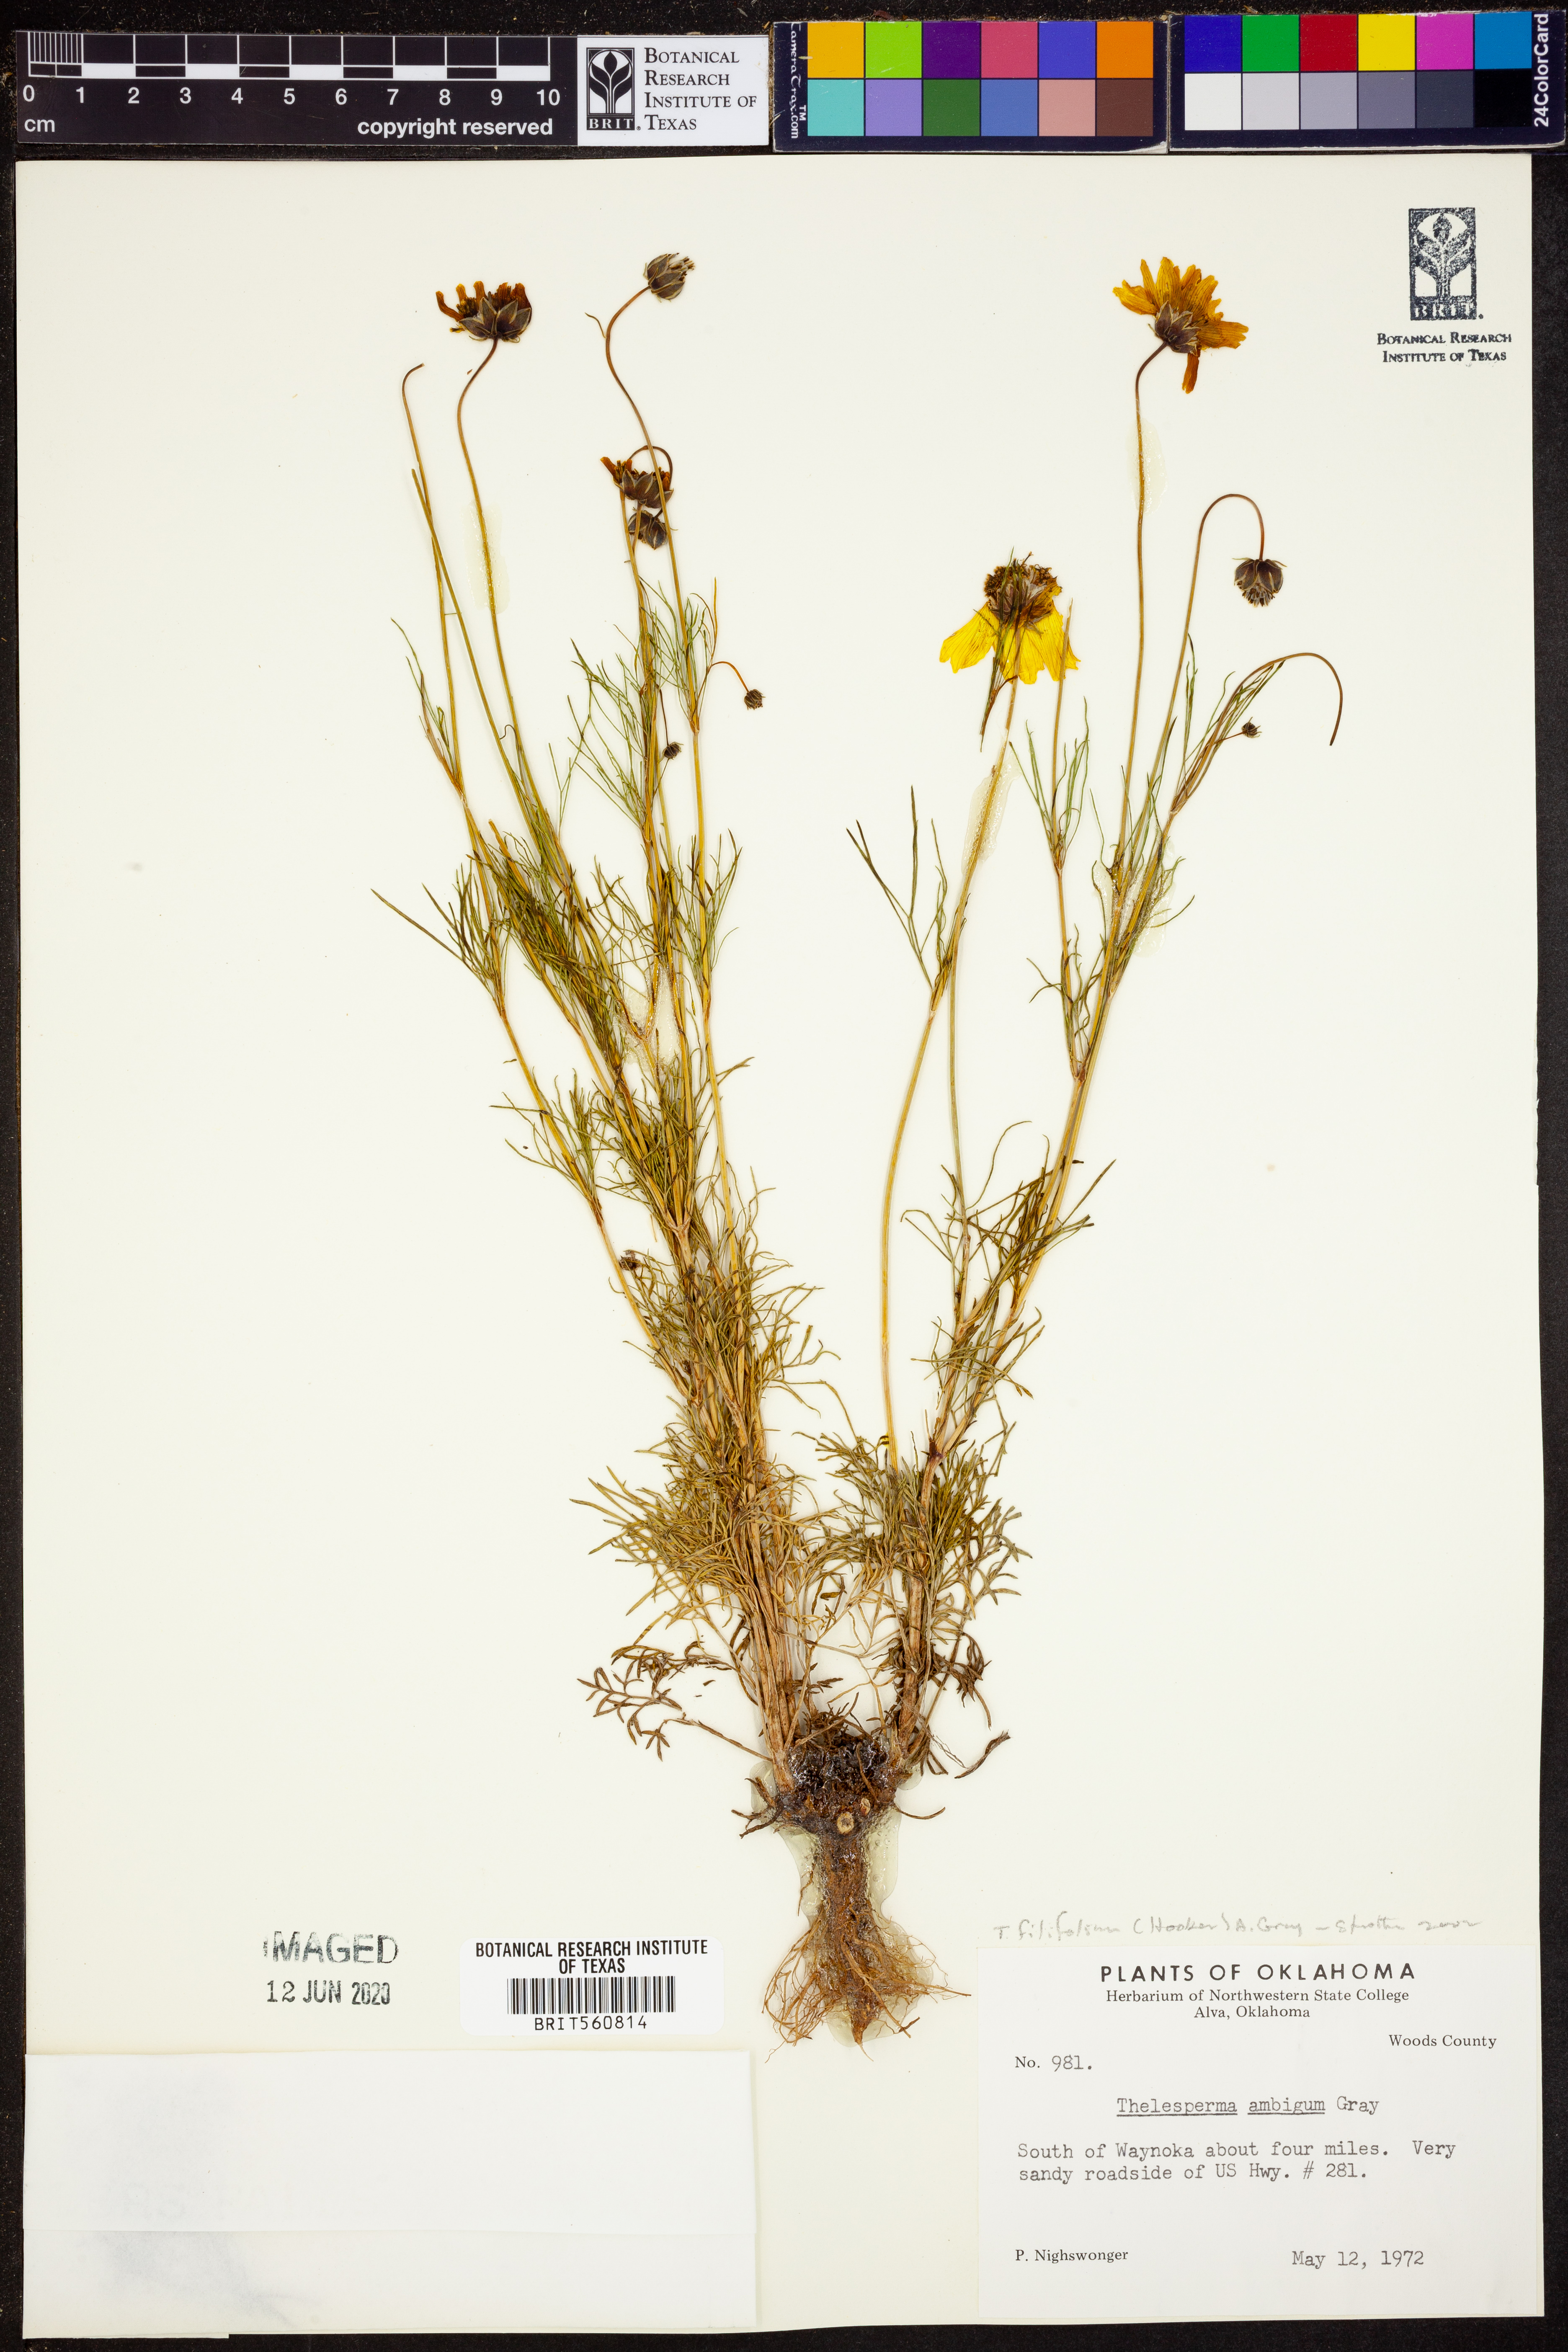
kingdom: Plantae
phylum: Tracheophyta
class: Magnoliopsida
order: Asterales
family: Asteraceae
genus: Thelesperma
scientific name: Thelesperma filifolium
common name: Stiff greenthread
